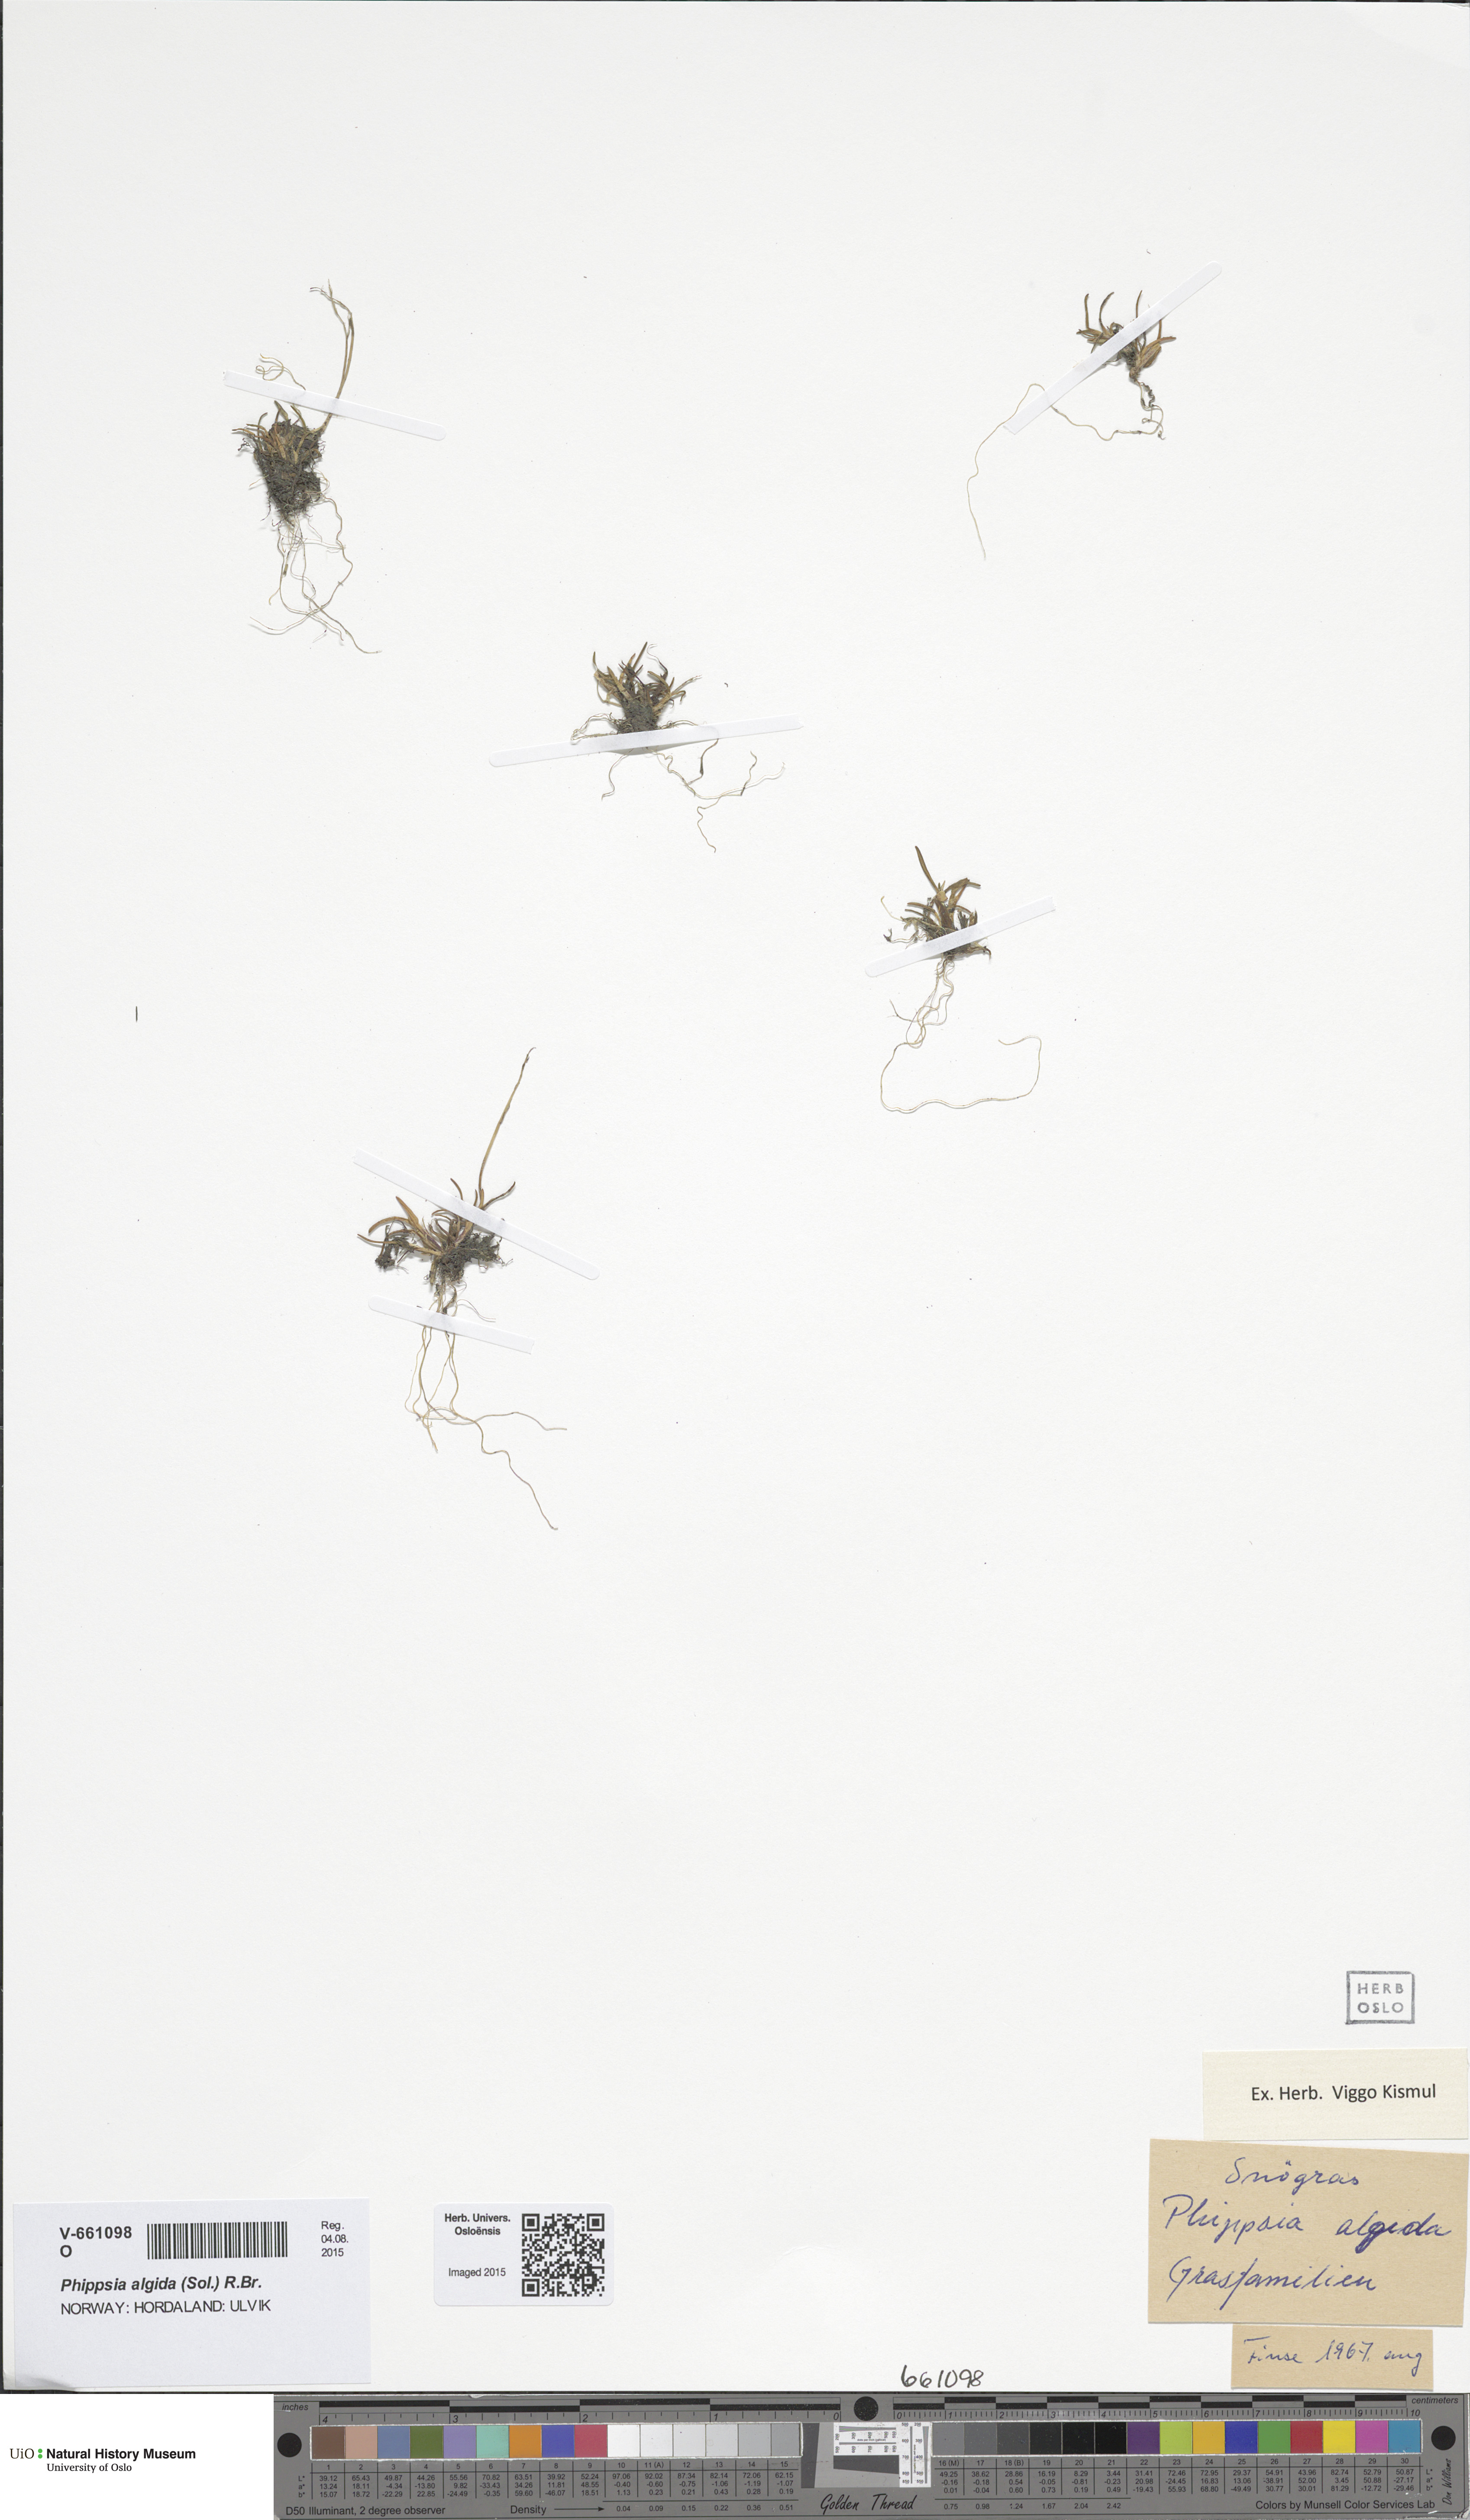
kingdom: Plantae
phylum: Tracheophyta
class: Liliopsida
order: Poales
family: Poaceae
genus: Phippsia
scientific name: Phippsia algida
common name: Ice grass
